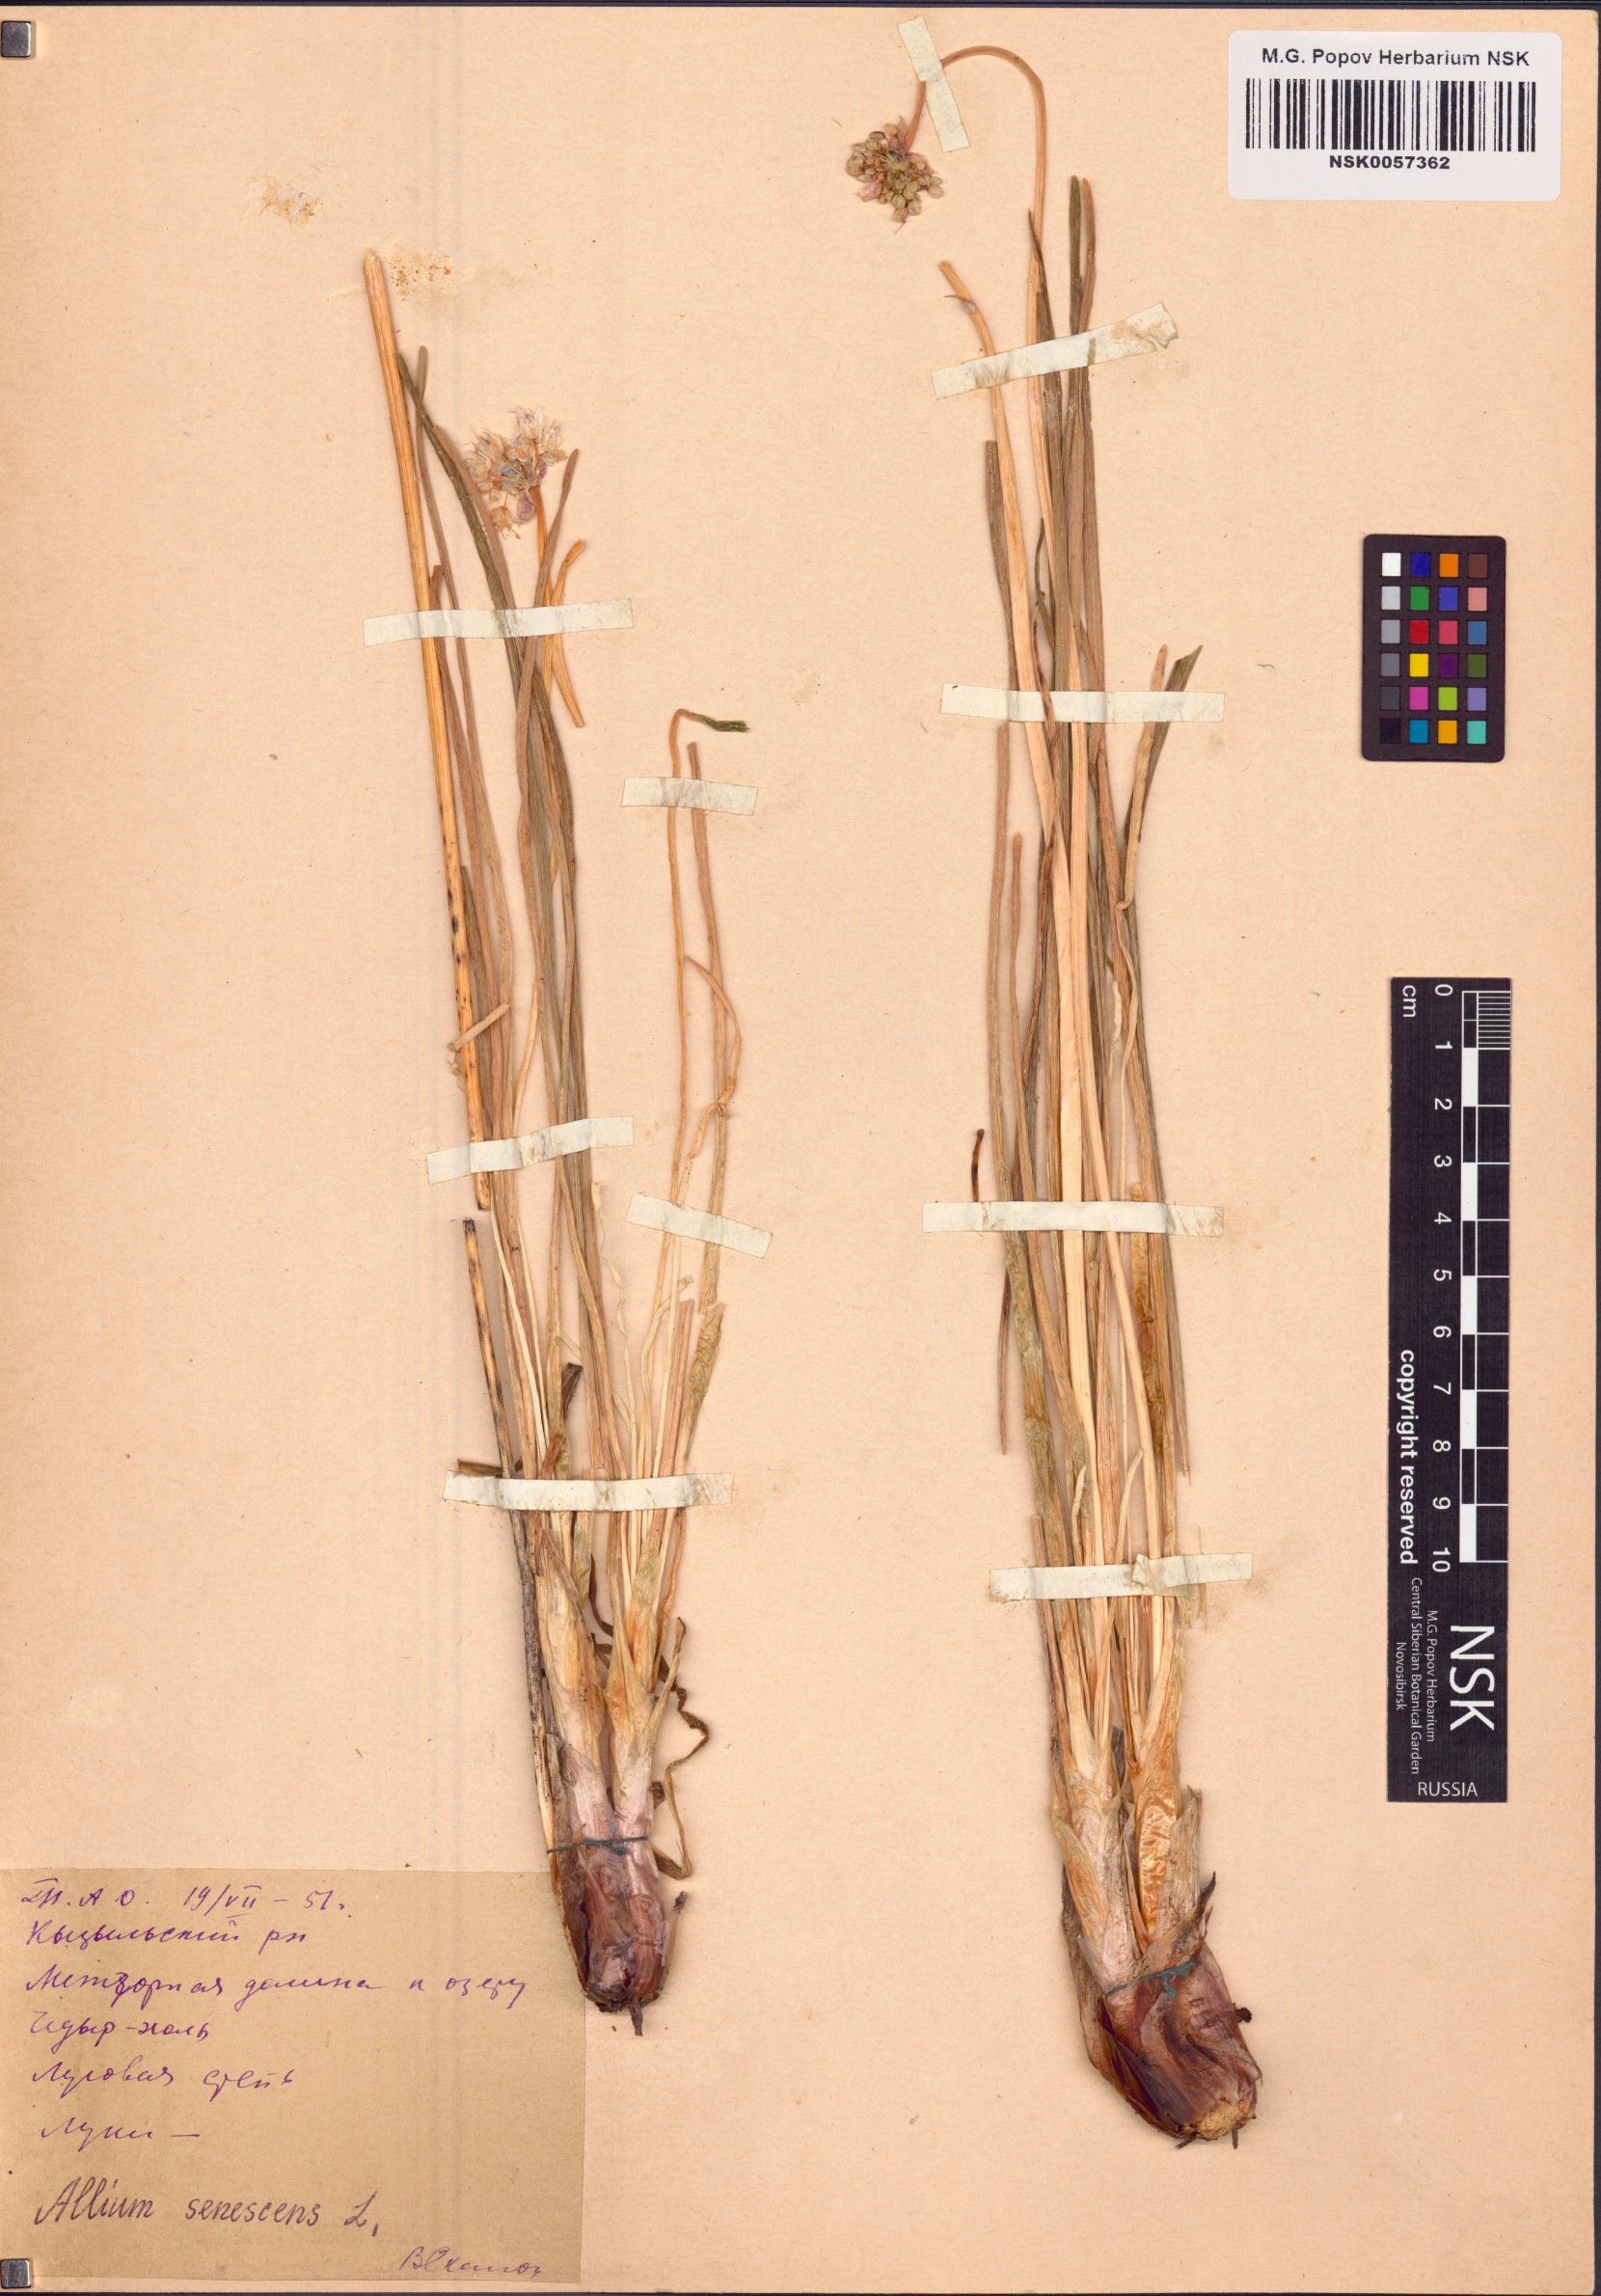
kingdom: Plantae
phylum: Tracheophyta
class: Liliopsida
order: Asparagales
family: Amaryllidaceae
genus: Allium
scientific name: Allium senescens
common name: German garlic
